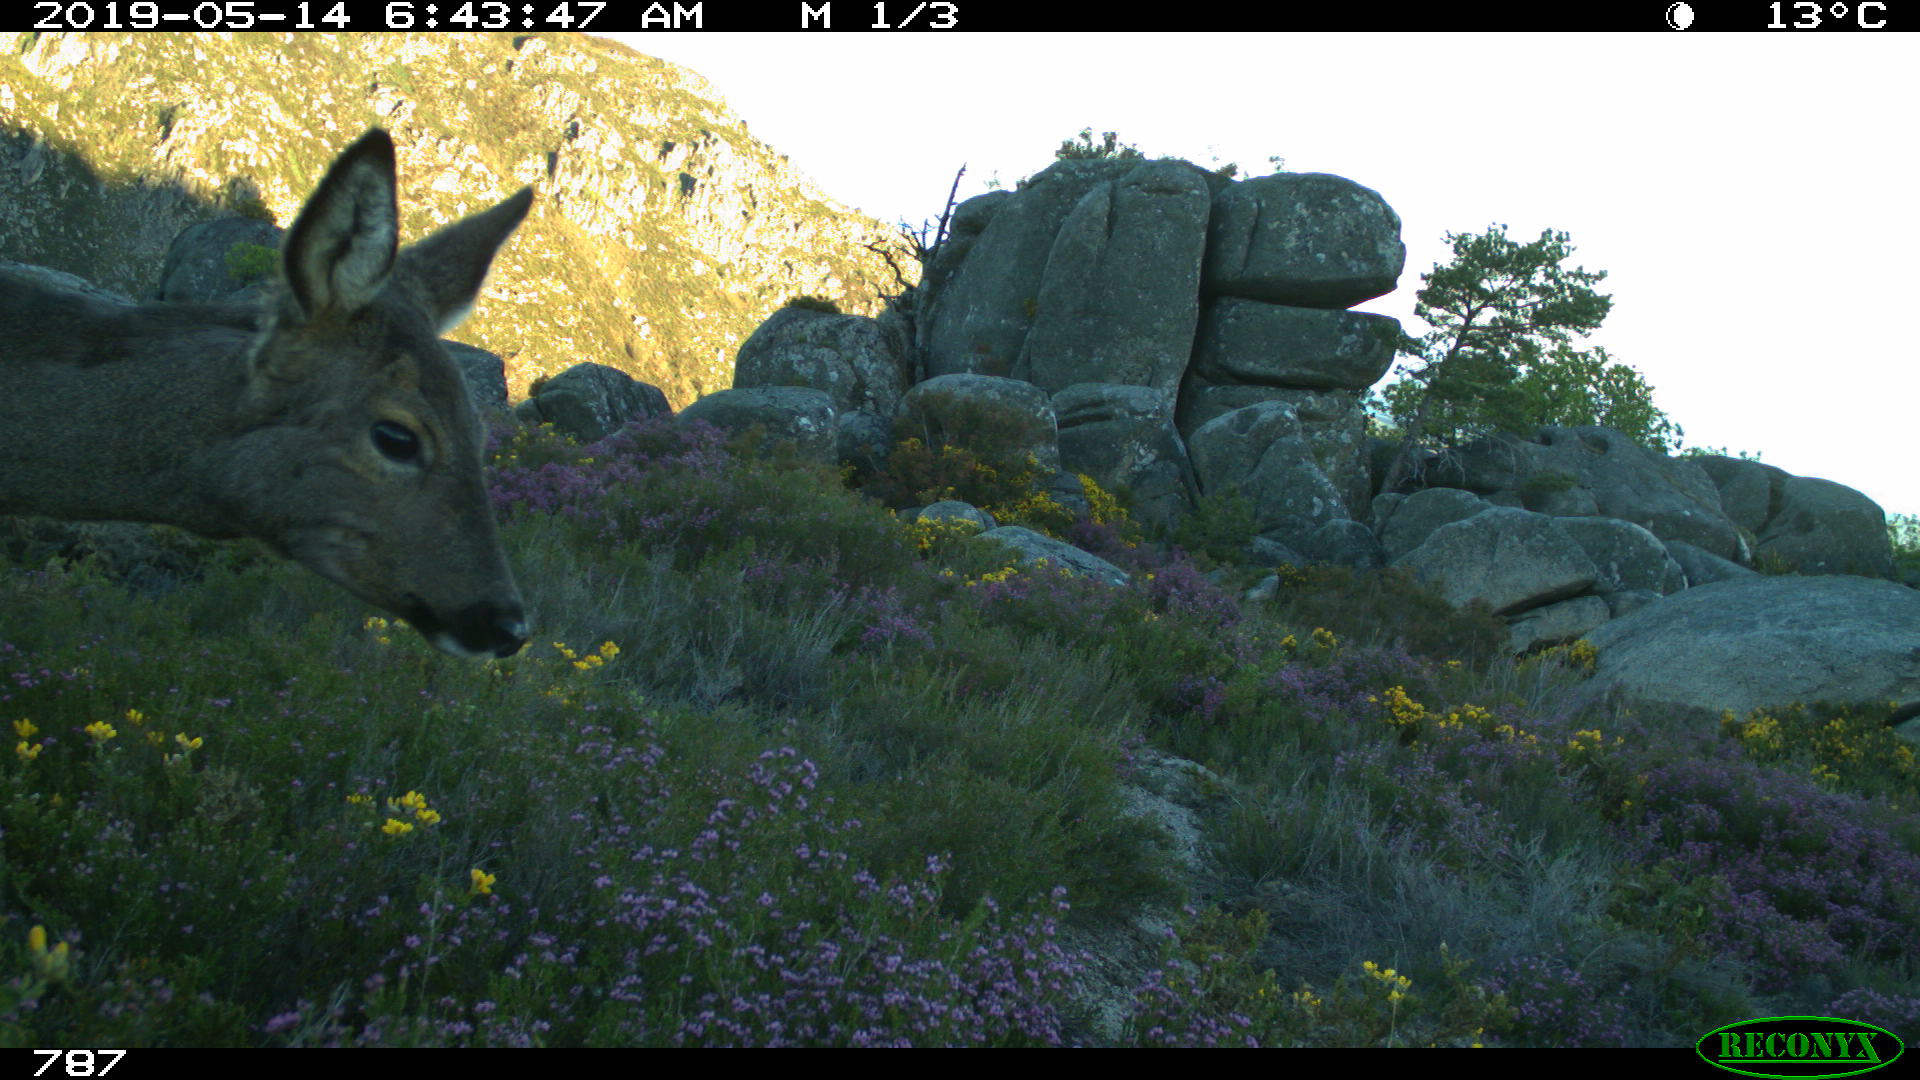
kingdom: Animalia
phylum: Chordata
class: Mammalia
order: Artiodactyla
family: Cervidae
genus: Capreolus
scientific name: Capreolus capreolus
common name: Western roe deer
